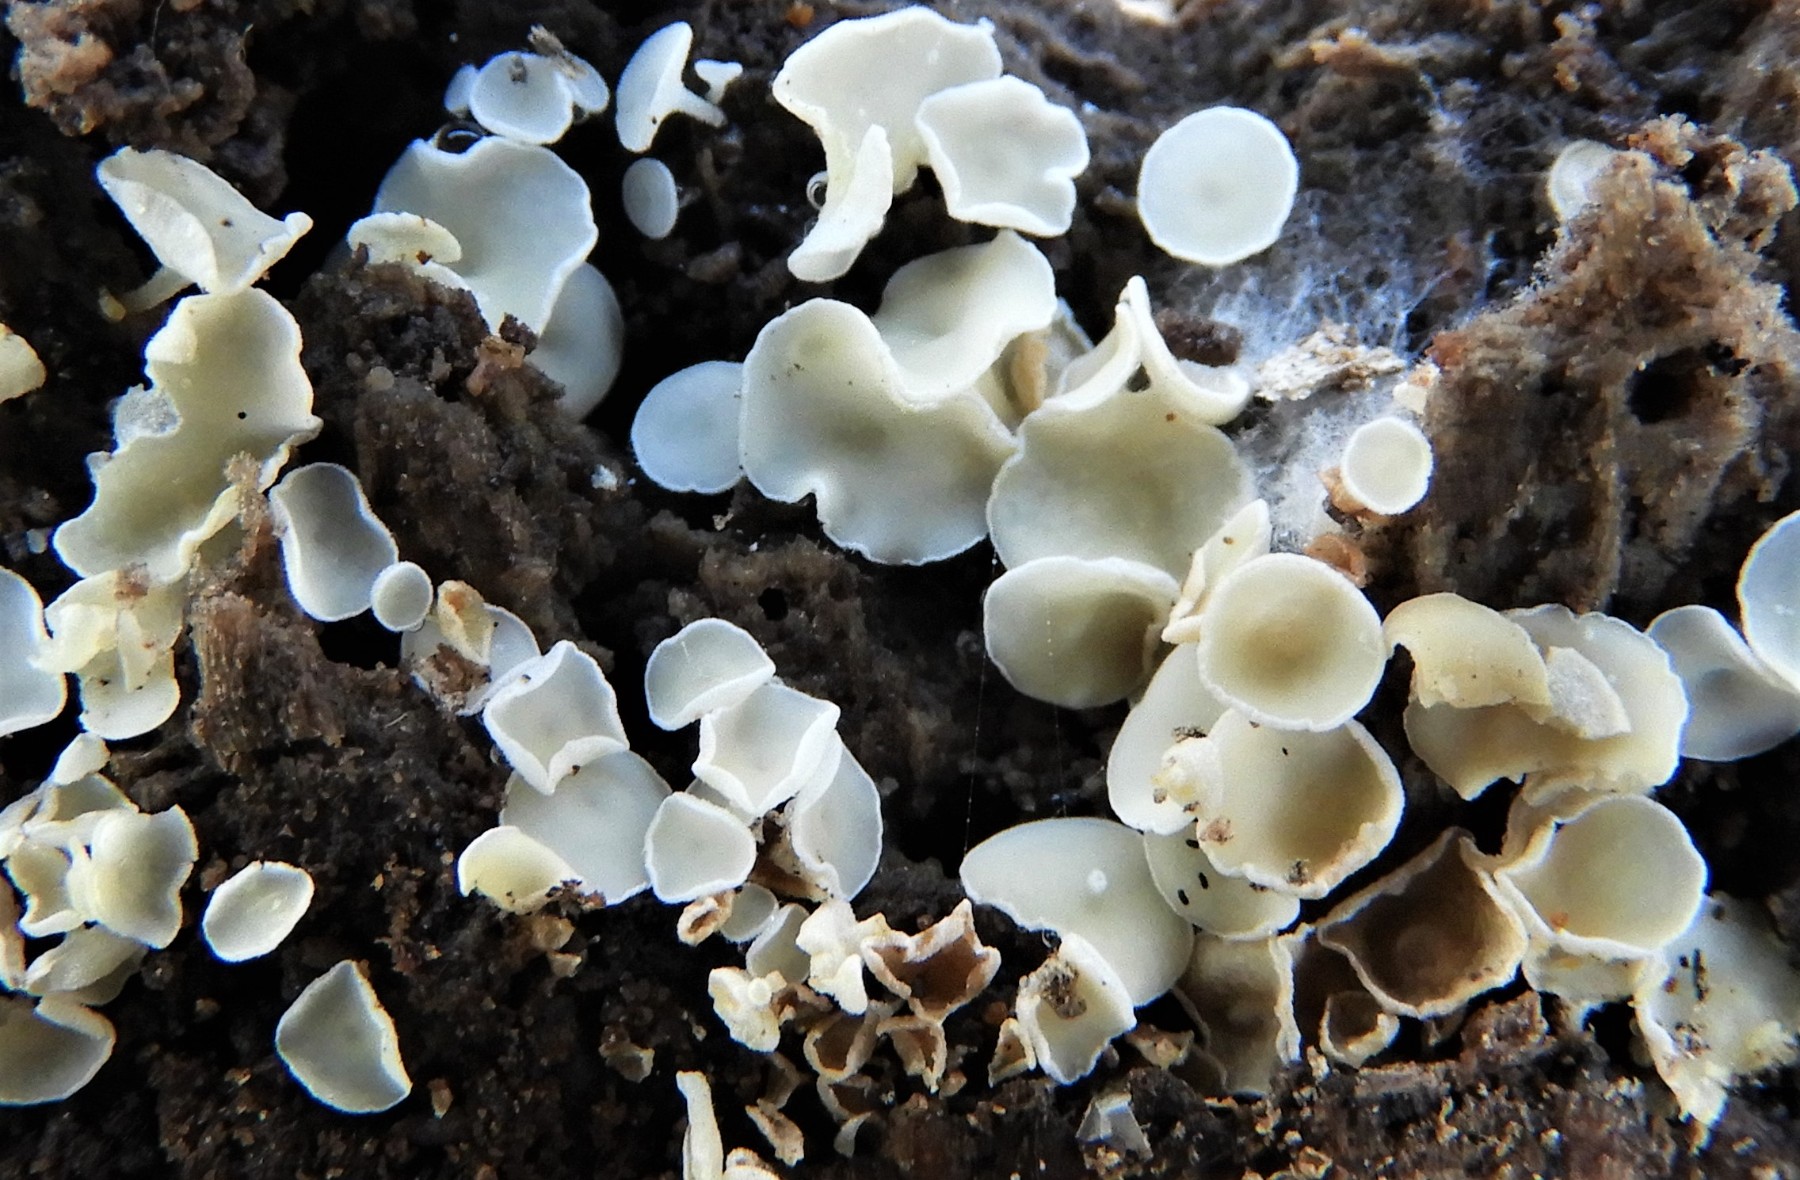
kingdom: Fungi
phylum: Ascomycota
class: Leotiomycetes
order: Helotiales
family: Lachnaceae
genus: Lachnum
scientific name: Lachnum
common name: frynseskive
